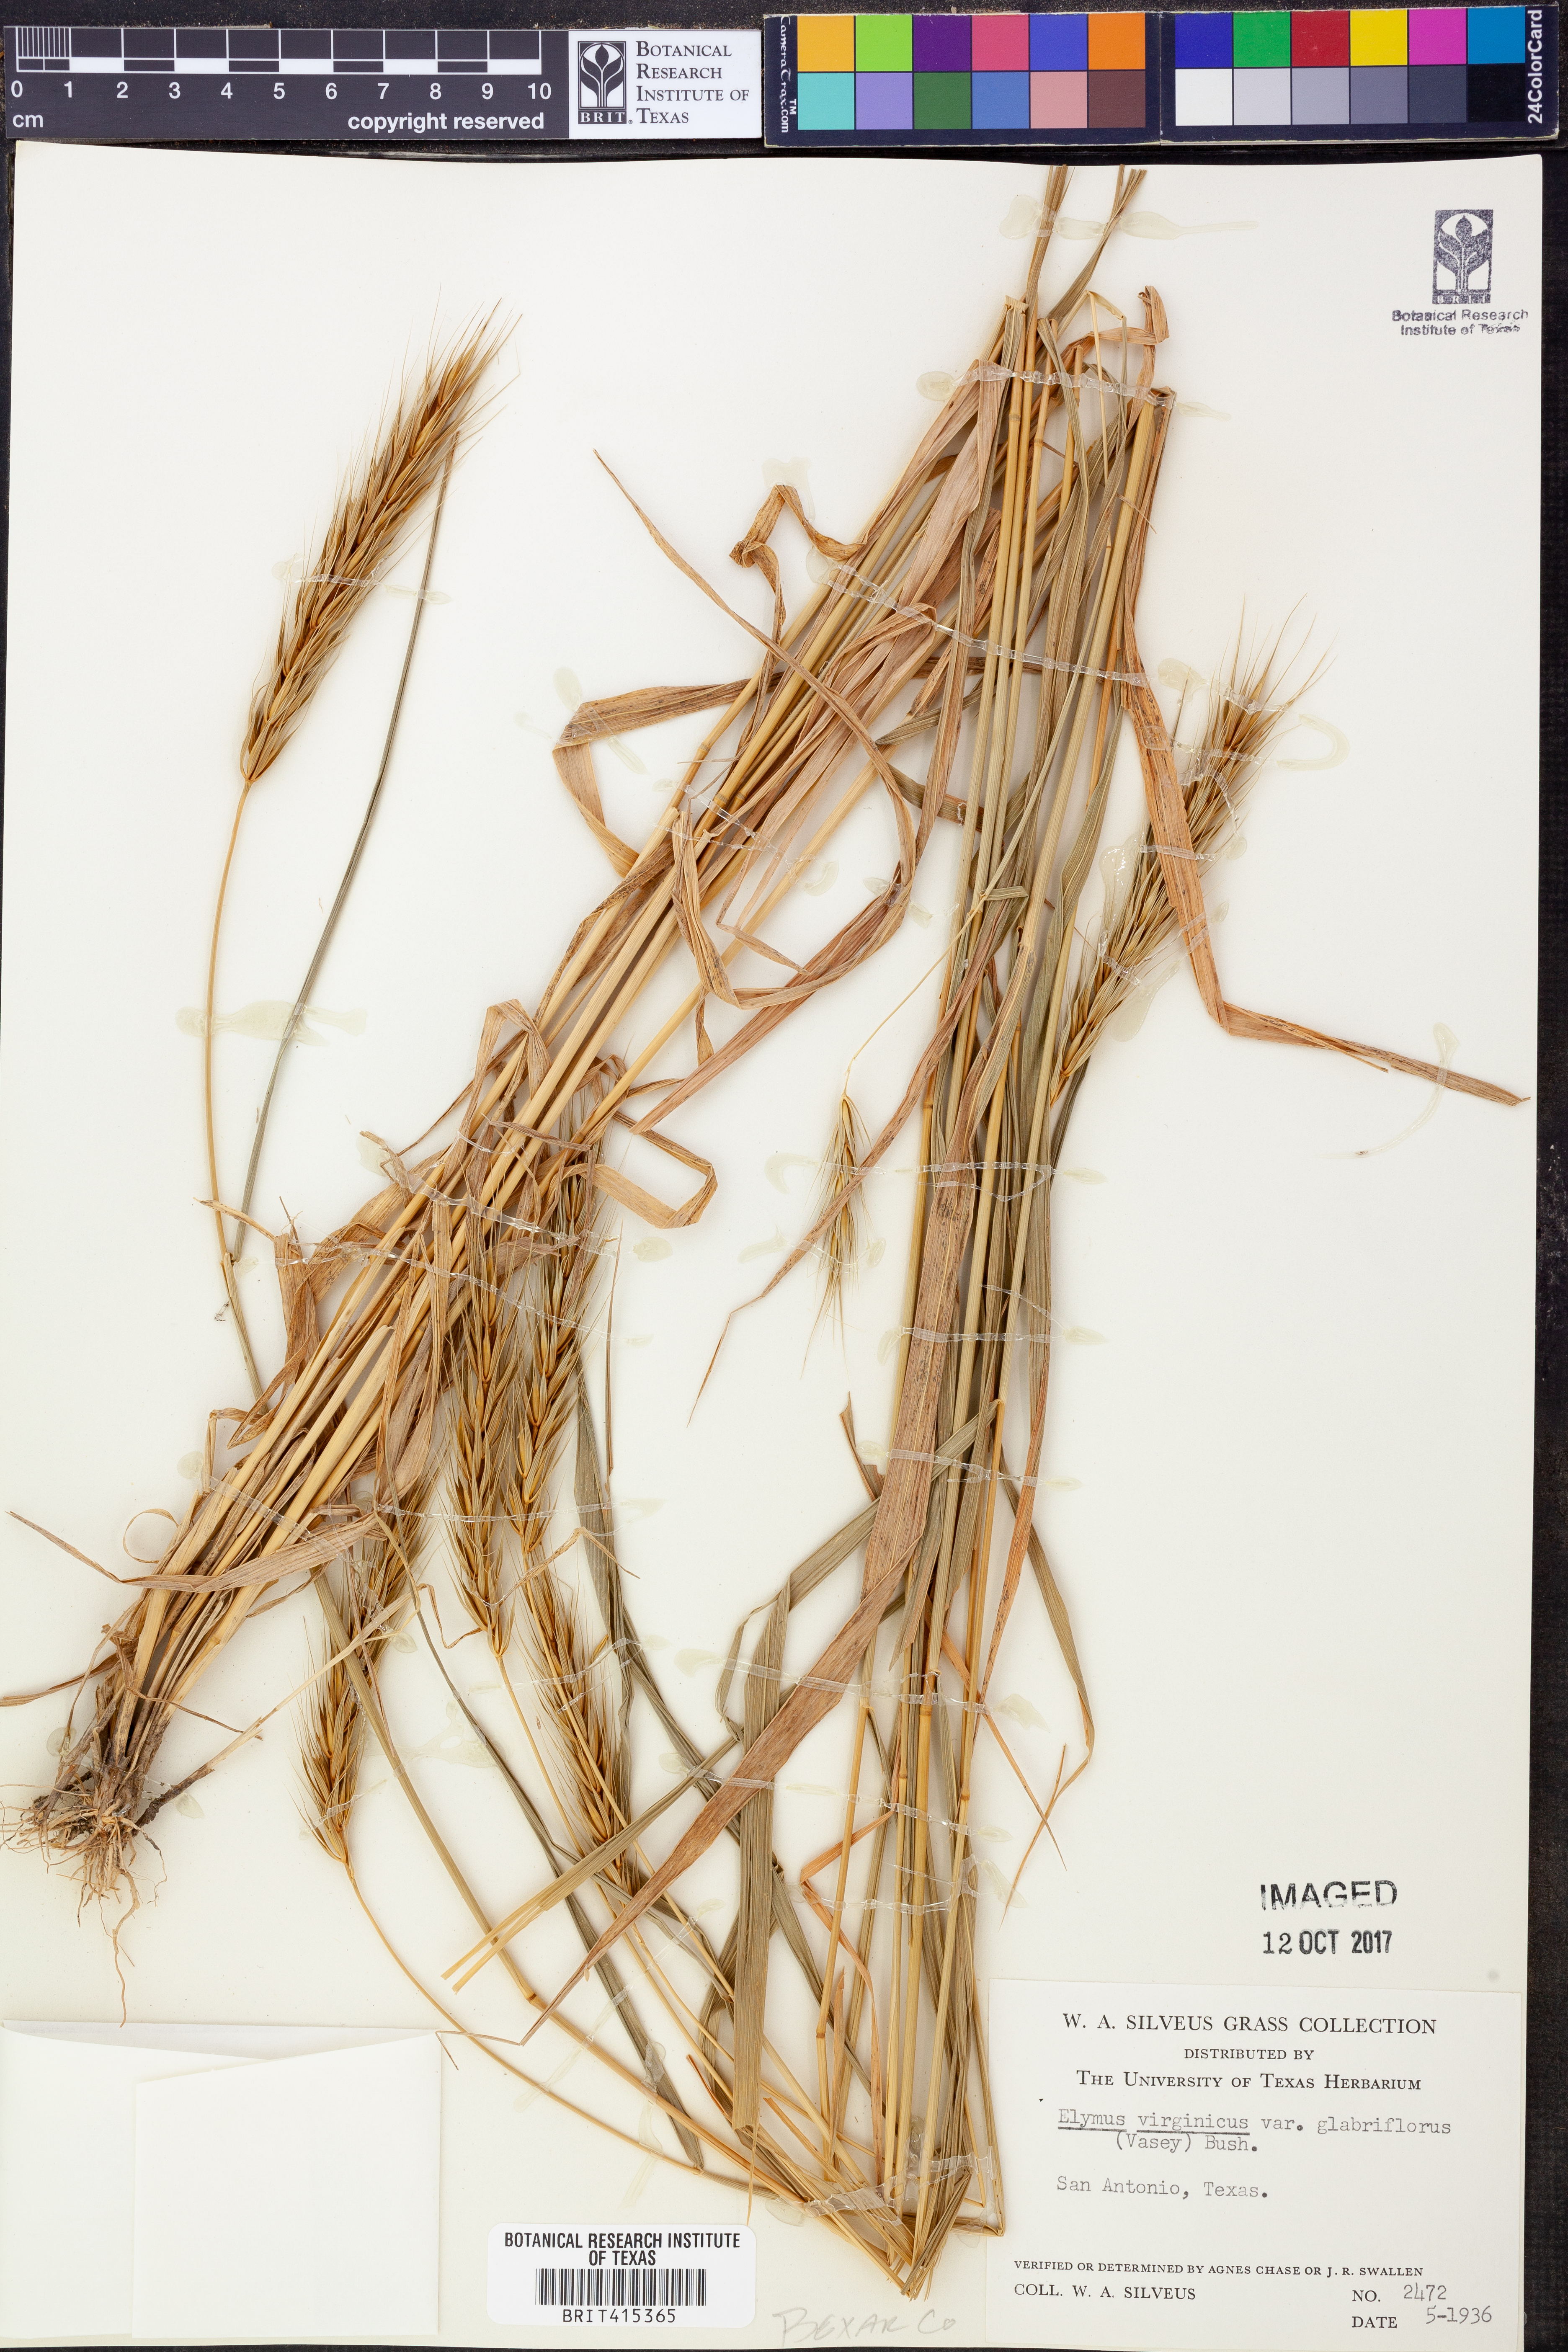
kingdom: Plantae
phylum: Tracheophyta
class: Liliopsida
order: Poales
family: Poaceae
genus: Elymus
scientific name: Elymus virginicus
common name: Common eastern wildrye
